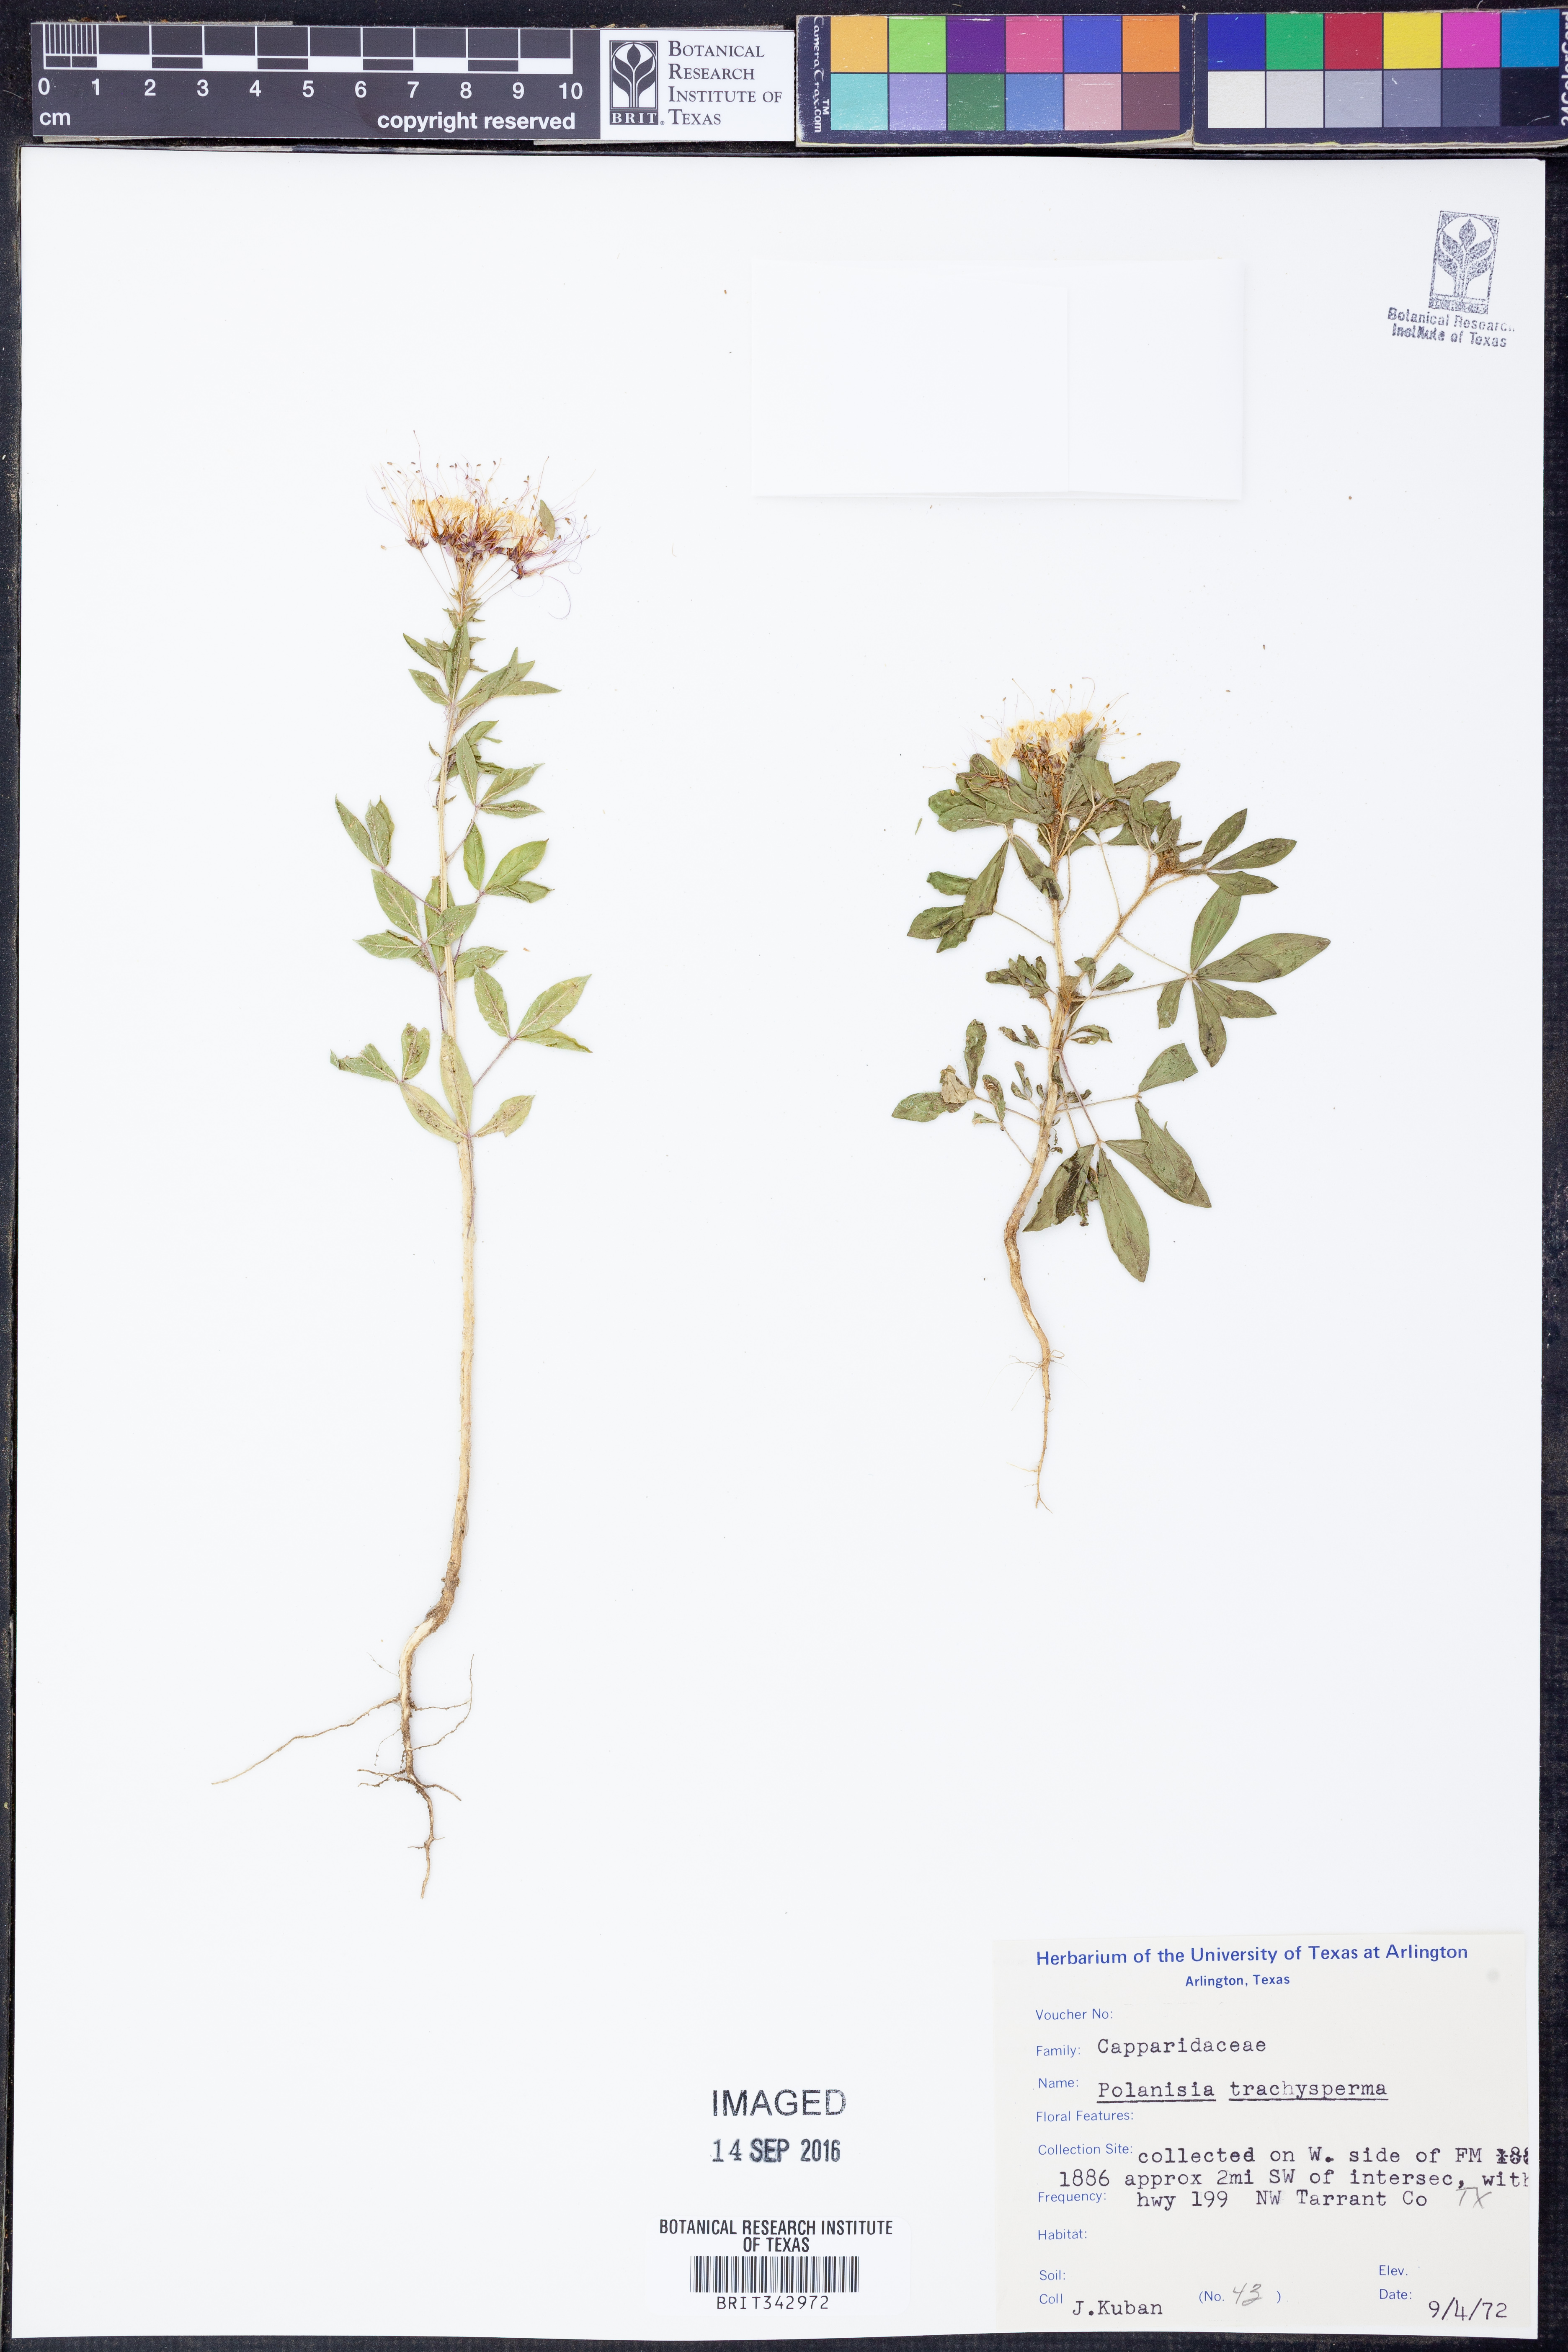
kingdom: Plantae
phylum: Tracheophyta
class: Magnoliopsida
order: Brassicales
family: Cleomaceae
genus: Polanisia
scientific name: Polanisia trachysperma
